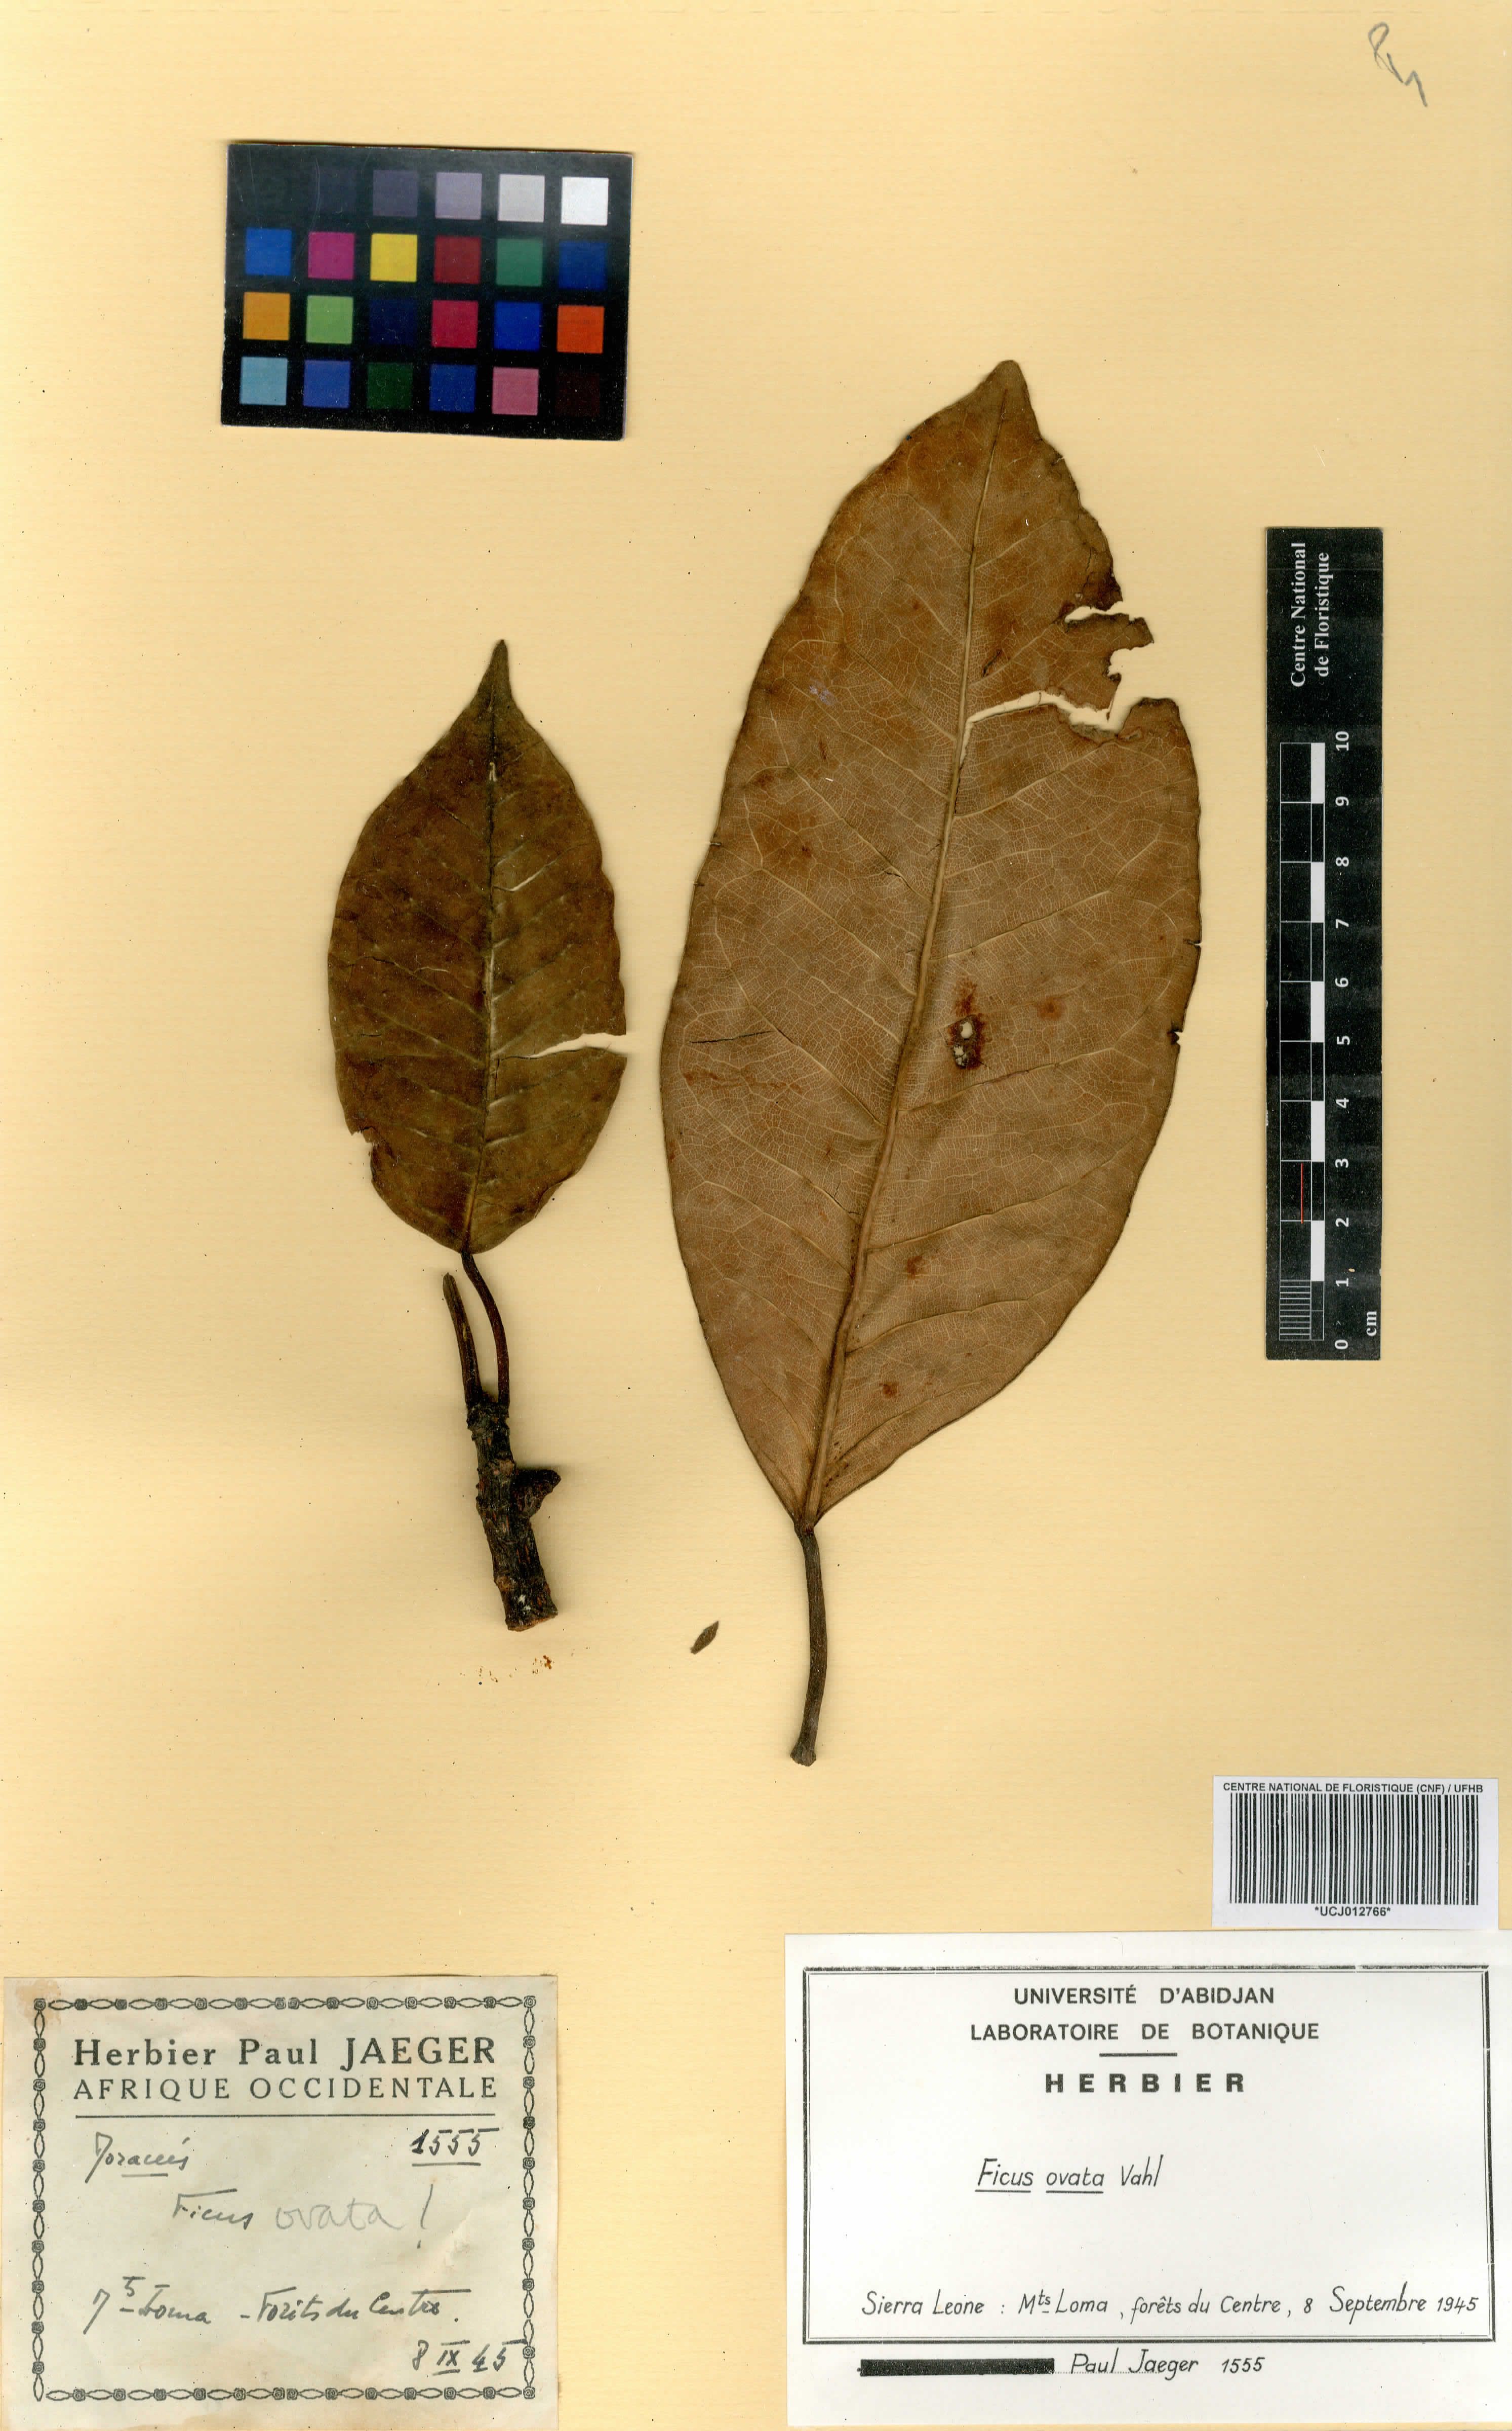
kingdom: Plantae
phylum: Tracheophyta
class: Magnoliopsida
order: Rosales
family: Moraceae
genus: Ficus
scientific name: Ficus laurifolia
